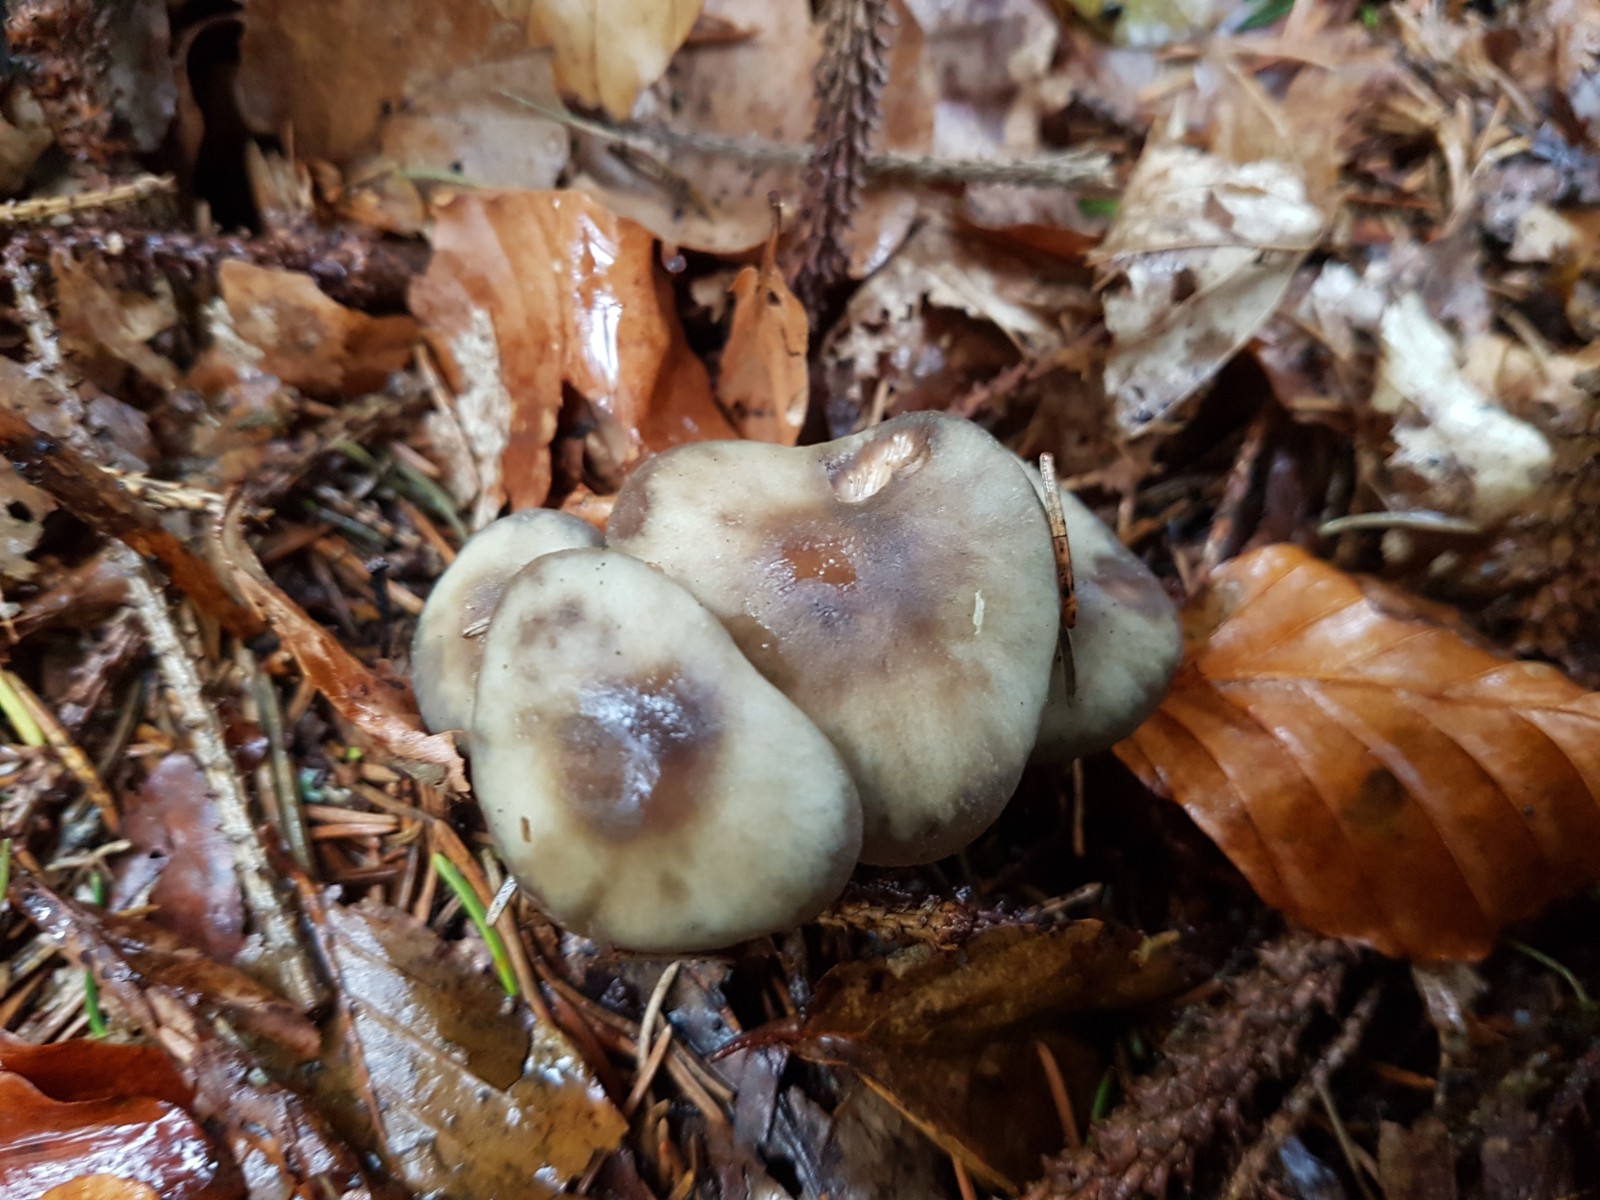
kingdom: Fungi
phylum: Basidiomycota
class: Agaricomycetes
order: Agaricales
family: Omphalotaceae
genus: Rhodocollybia
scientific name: Rhodocollybia asema
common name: horngrå fladhat
